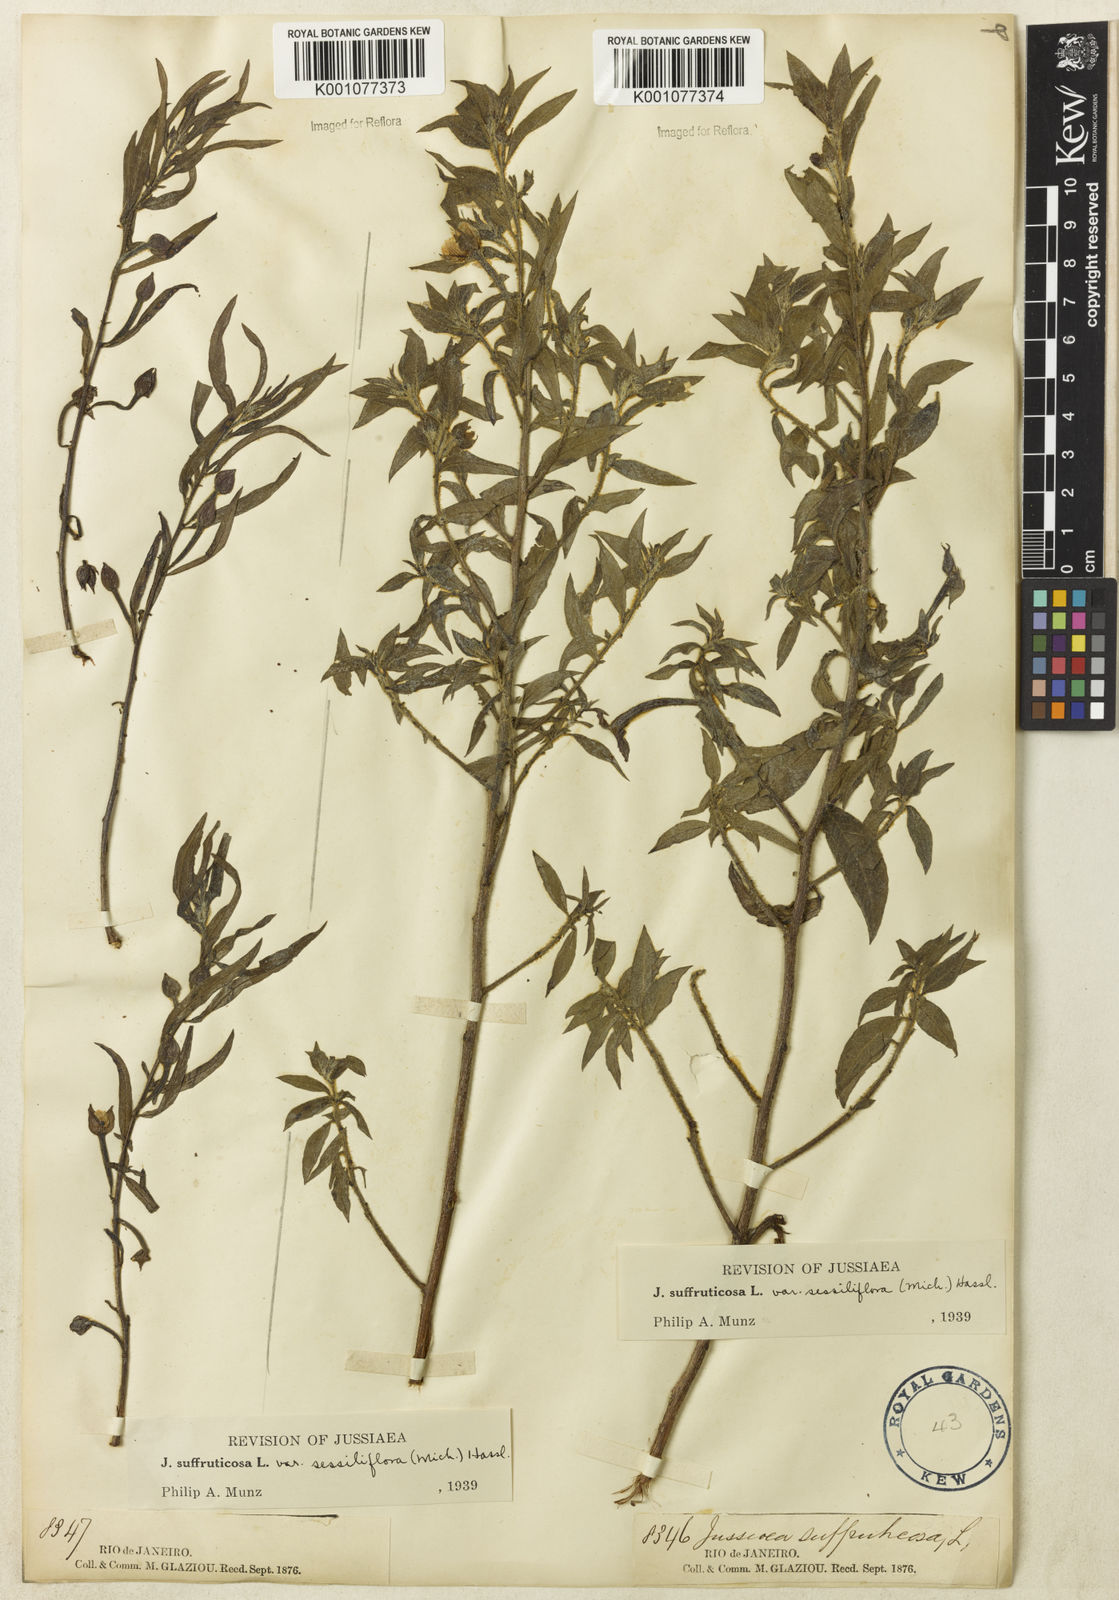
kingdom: Plantae
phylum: Tracheophyta
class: Magnoliopsida
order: Myrtales
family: Onagraceae
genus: Ludwigia
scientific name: Ludwigia octovalvis
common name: Water-primrose
